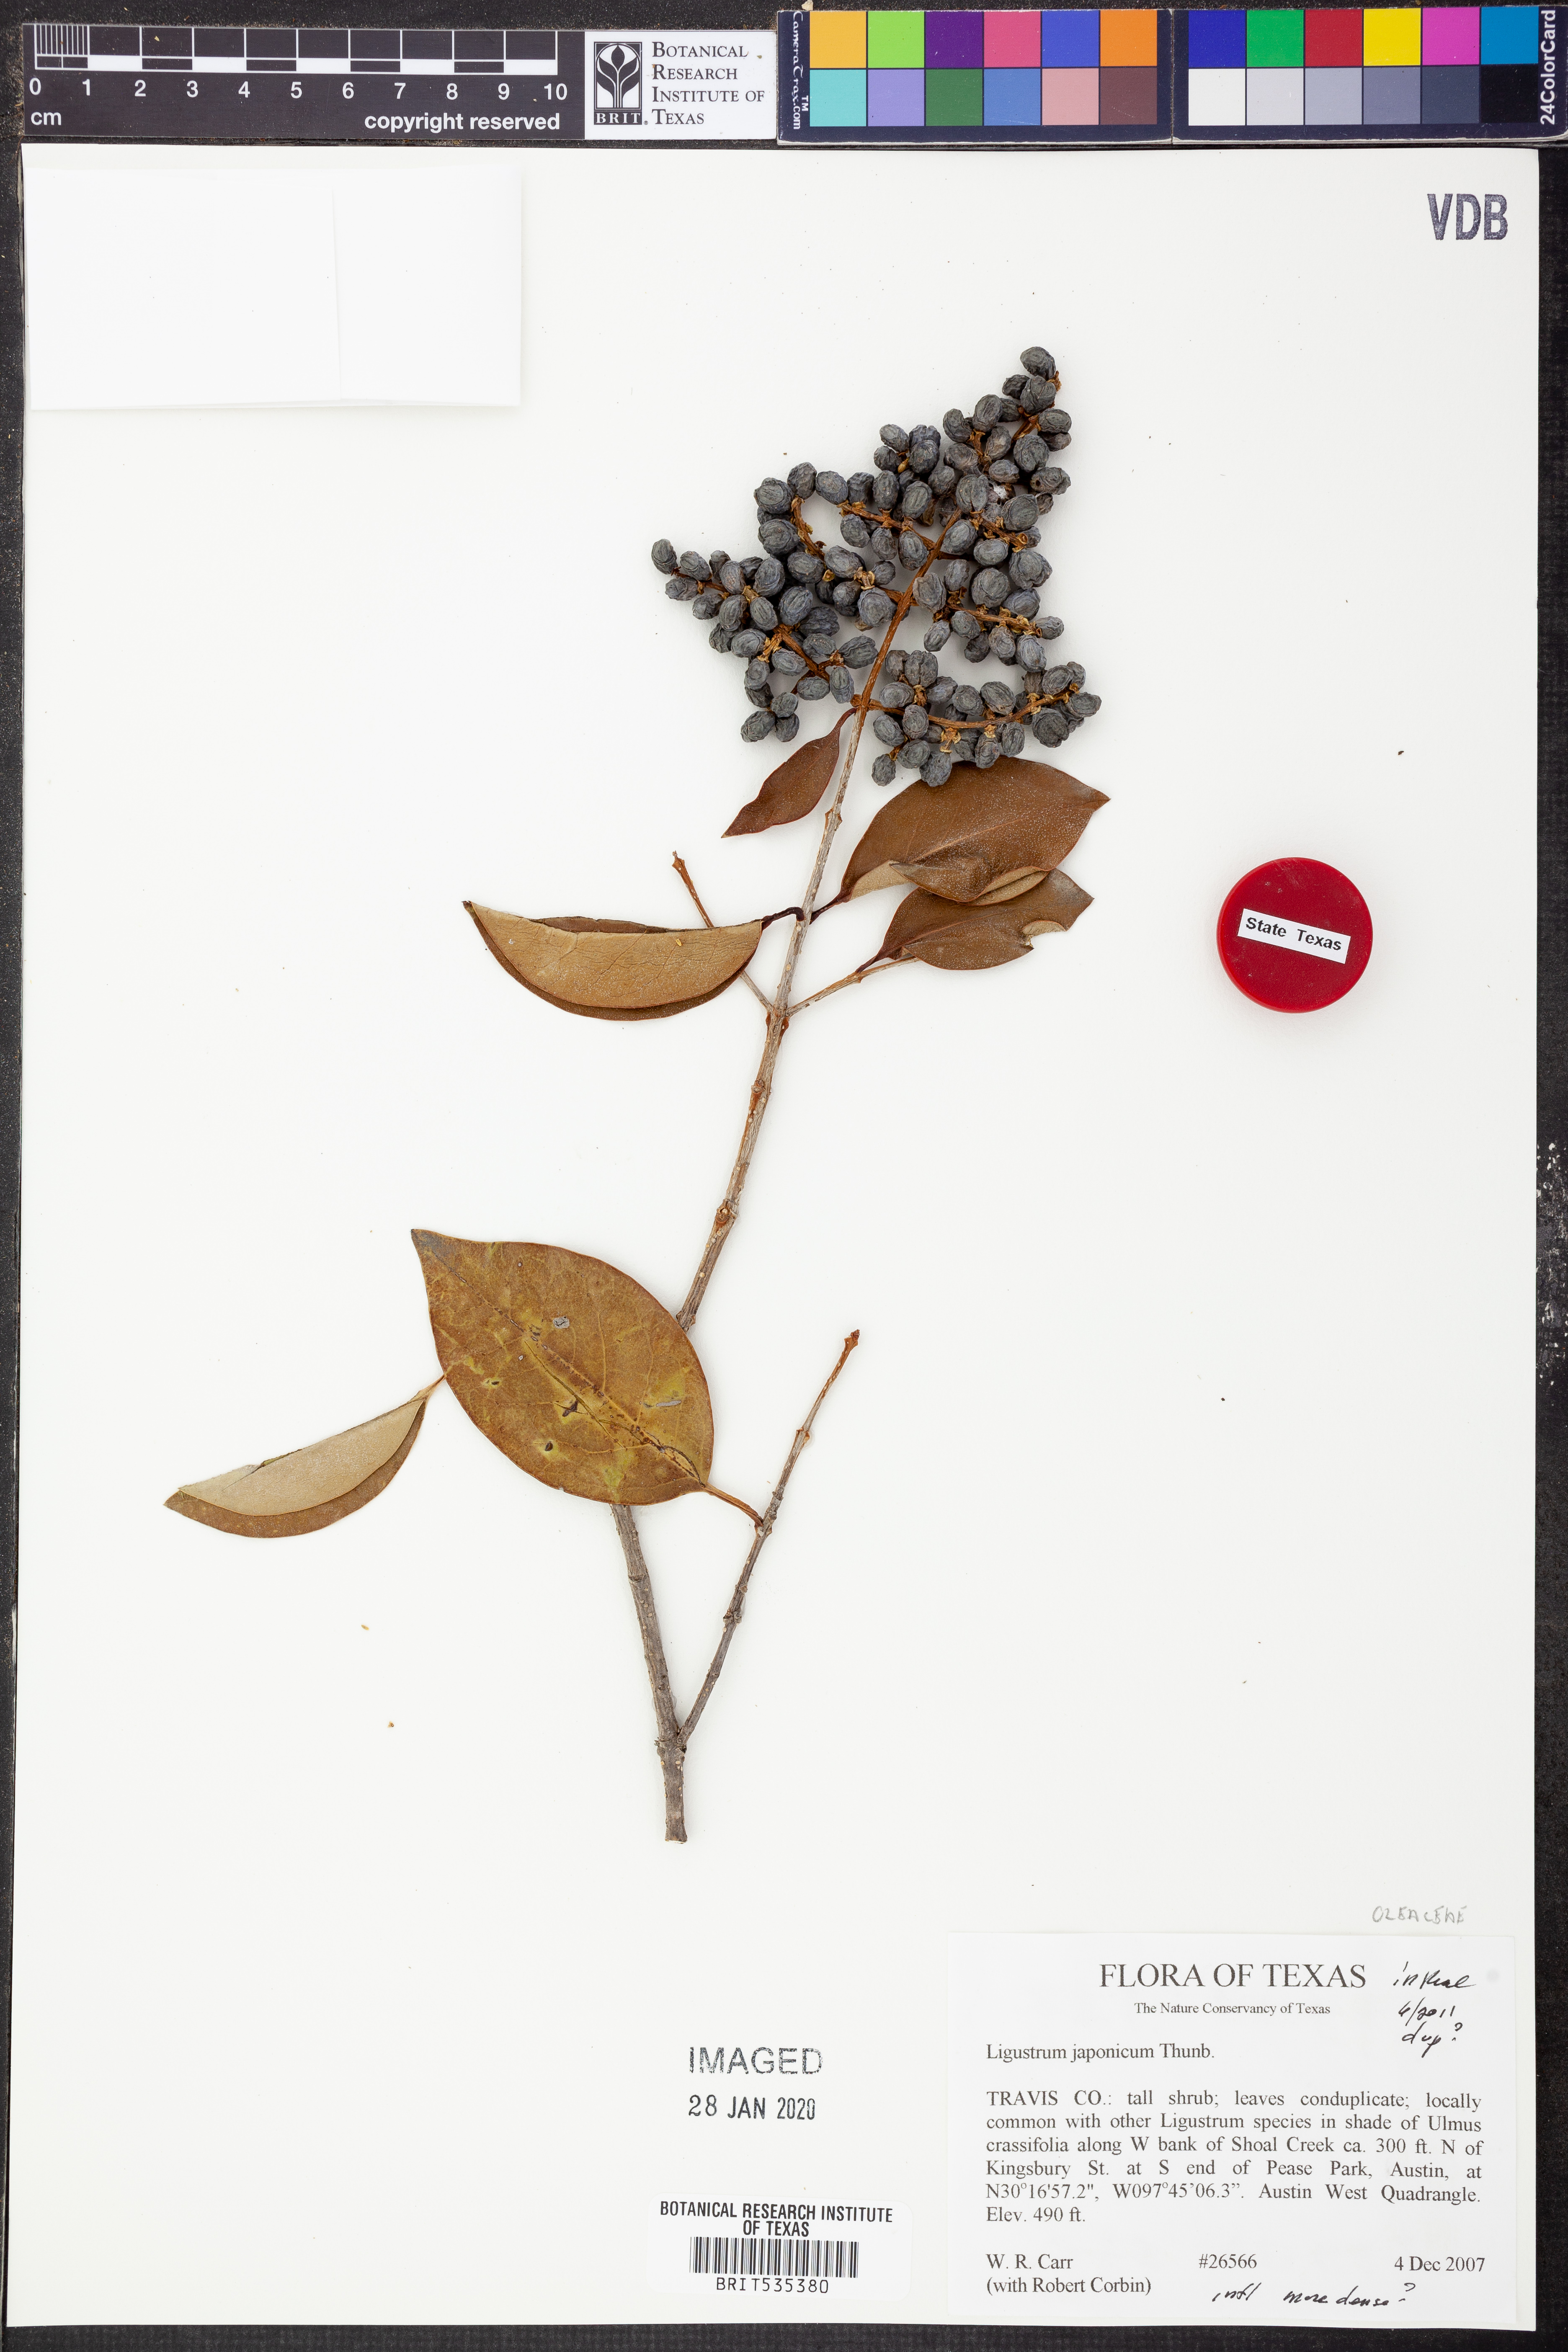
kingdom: Plantae
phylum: Tracheophyta
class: Magnoliopsida
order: Lamiales
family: Oleaceae
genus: Ligustrum
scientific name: Ligustrum japonicum
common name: Japanese privet
